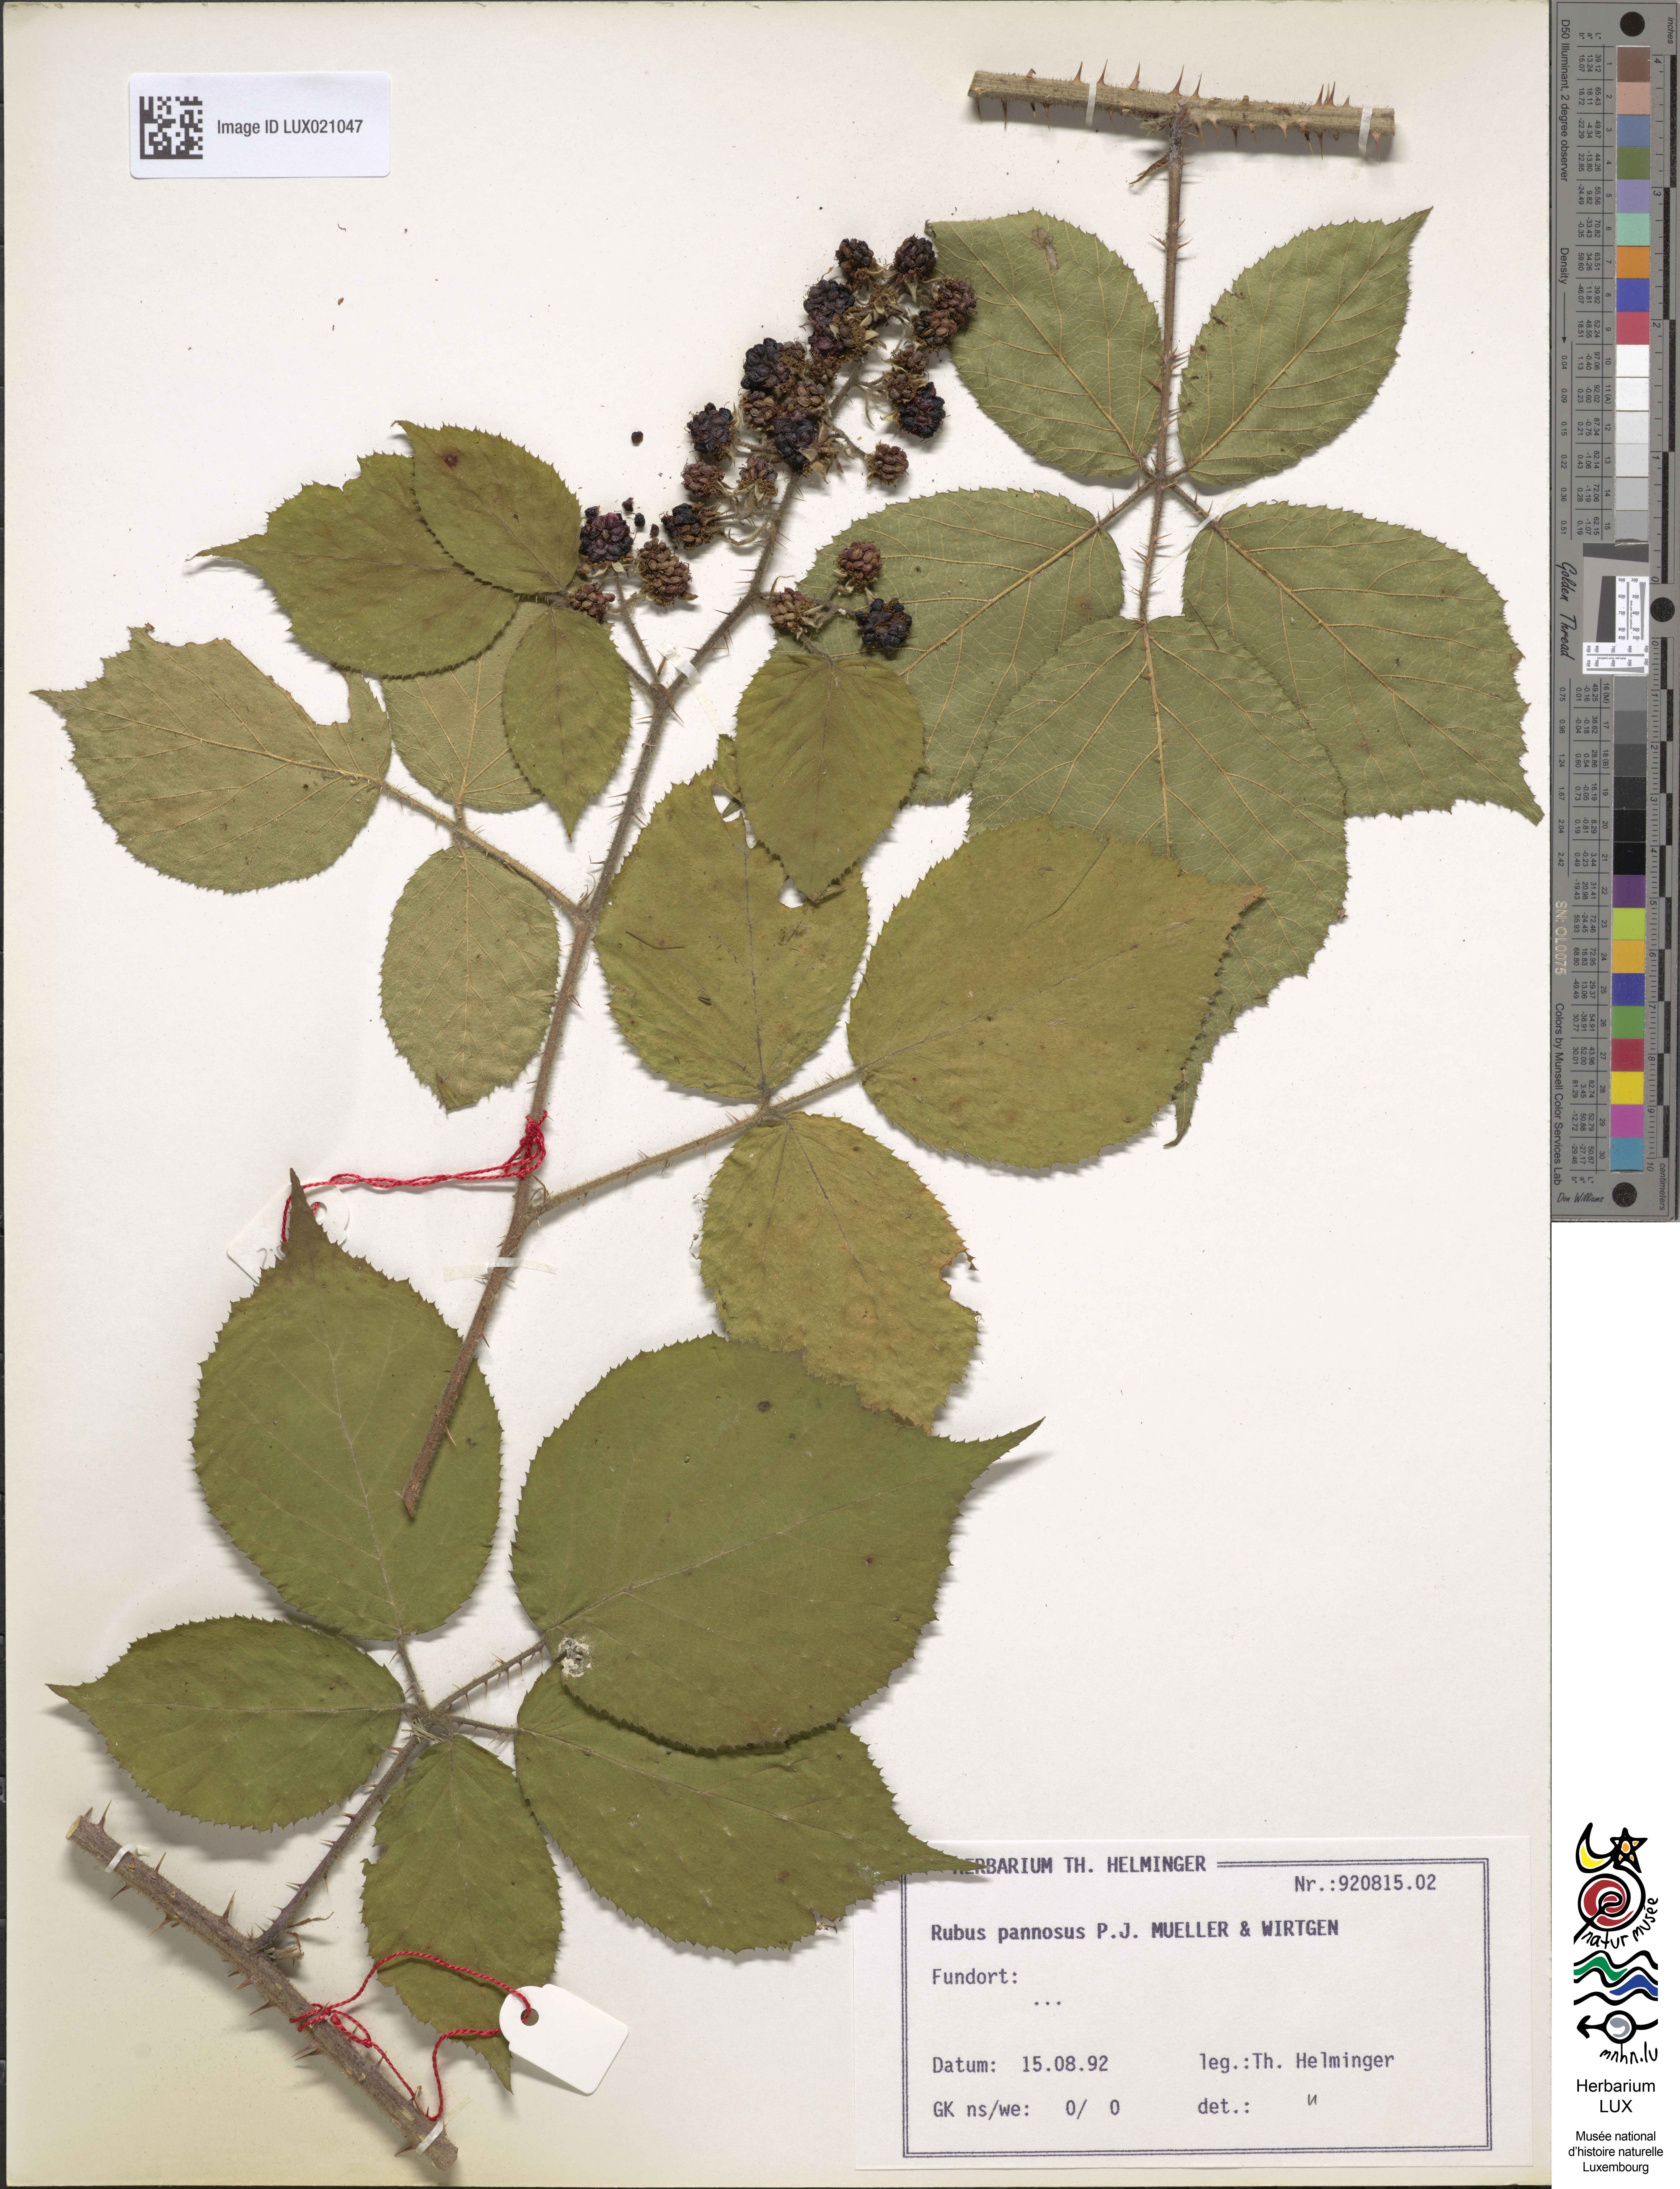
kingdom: Plantae
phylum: Tracheophyta
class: Magnoliopsida
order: Rosales
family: Rosaceae
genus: Rubus
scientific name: Rubus pannosus
